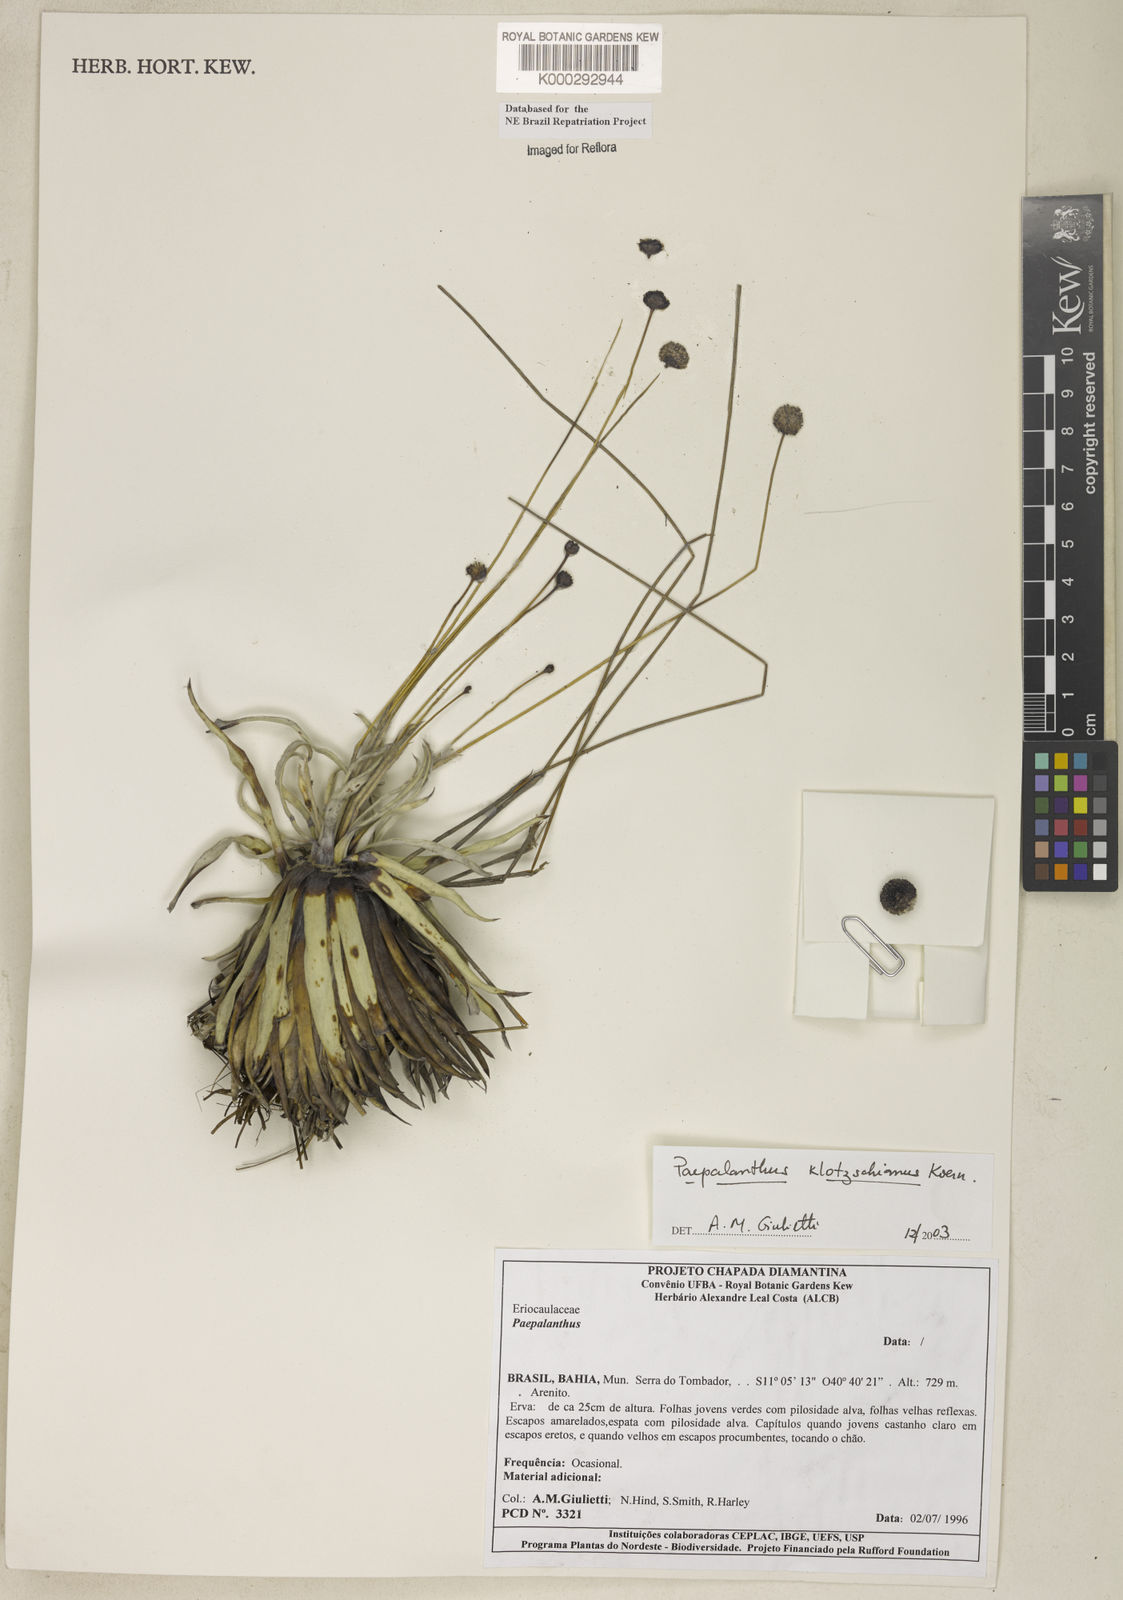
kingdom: Plantae
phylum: Tracheophyta
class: Liliopsida
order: Poales
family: Eriocaulaceae
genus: Paepalanthus
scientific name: Paepalanthus
